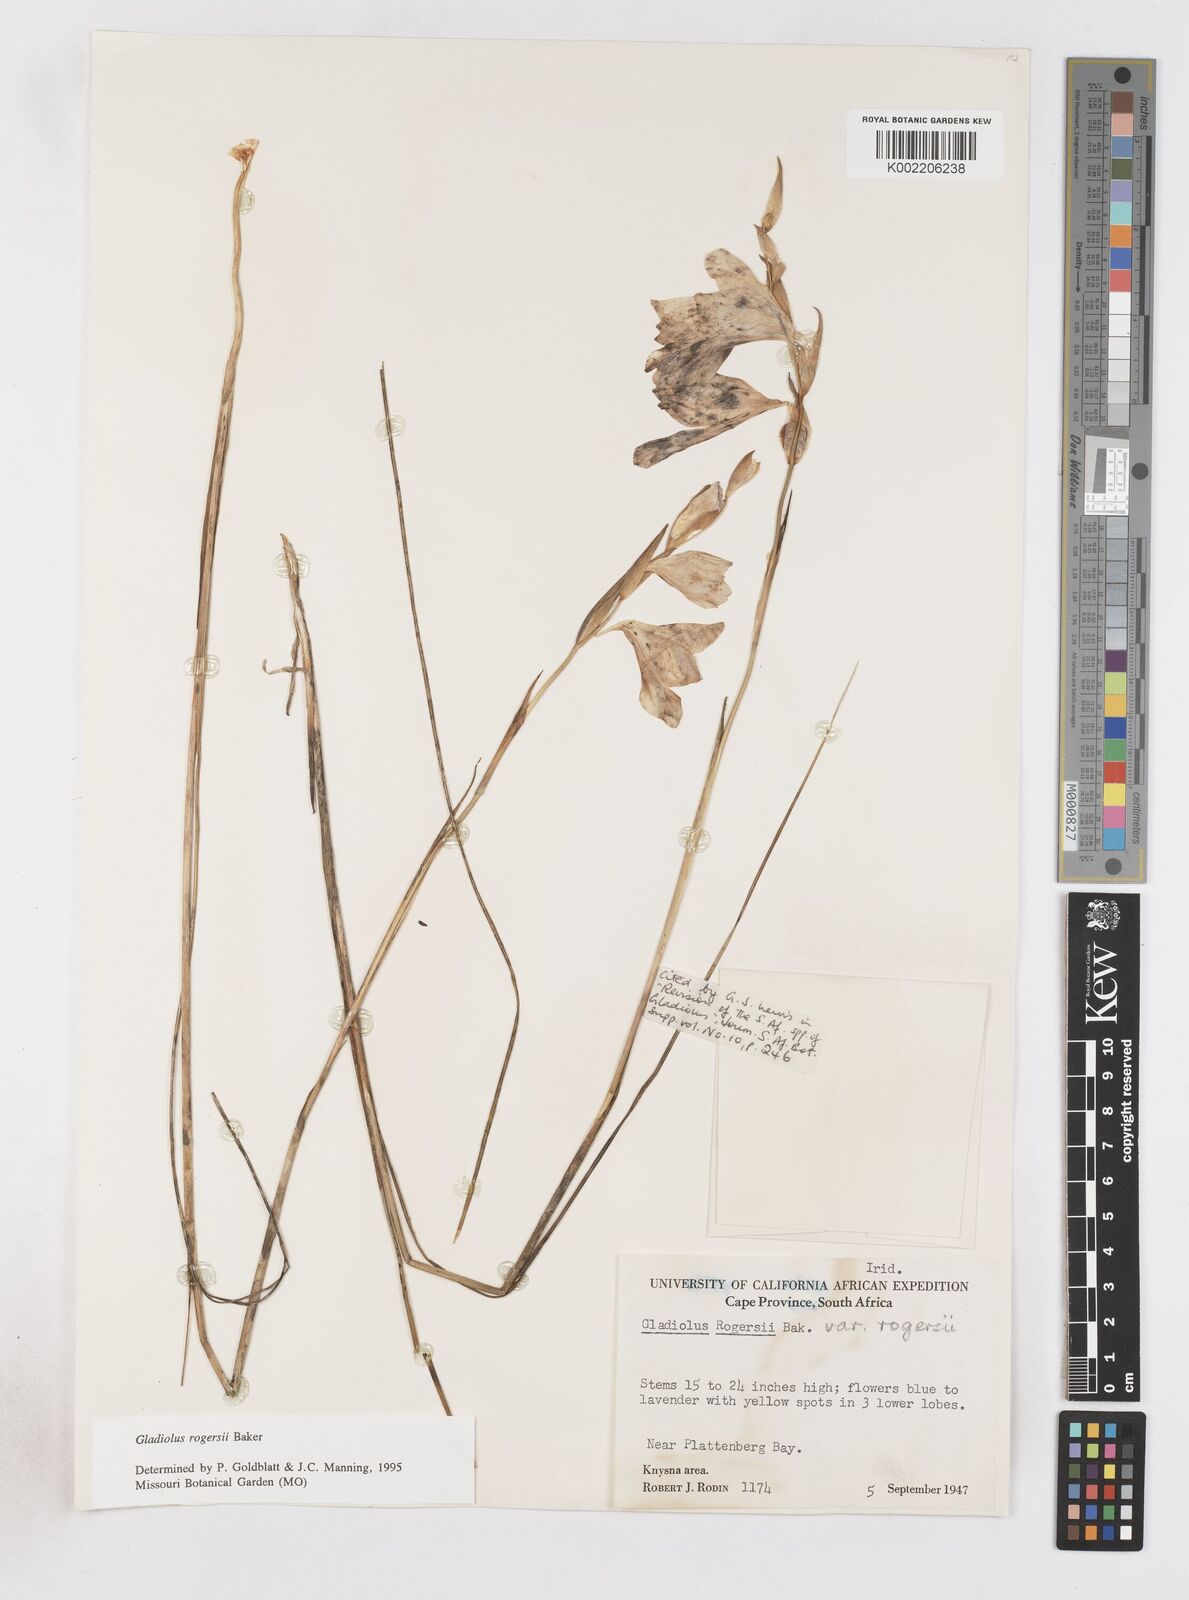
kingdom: Plantae
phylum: Tracheophyta
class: Liliopsida
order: Asparagales
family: Iridaceae
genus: Gladiolus
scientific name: Gladiolus rogersii
